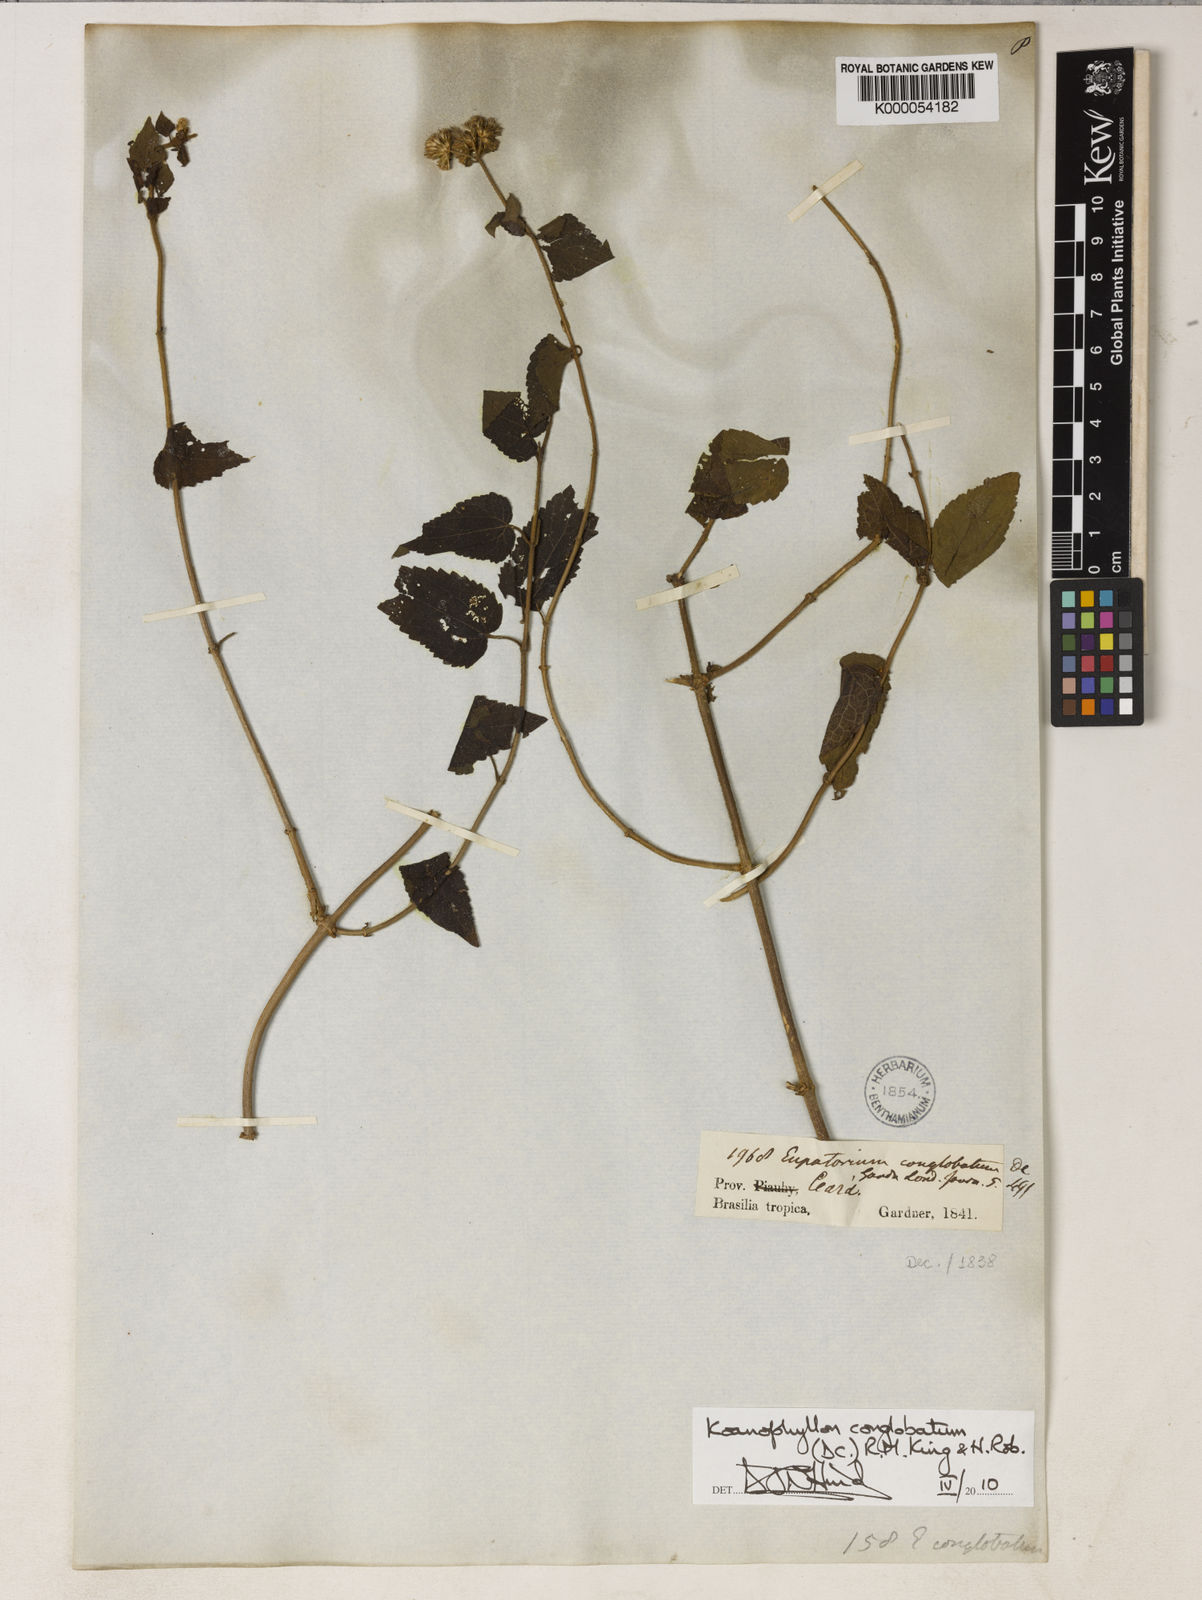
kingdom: Plantae
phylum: Tracheophyta
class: Magnoliopsida
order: Asterales
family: Asteraceae
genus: Koanophyllon
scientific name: Koanophyllon conglobatum
